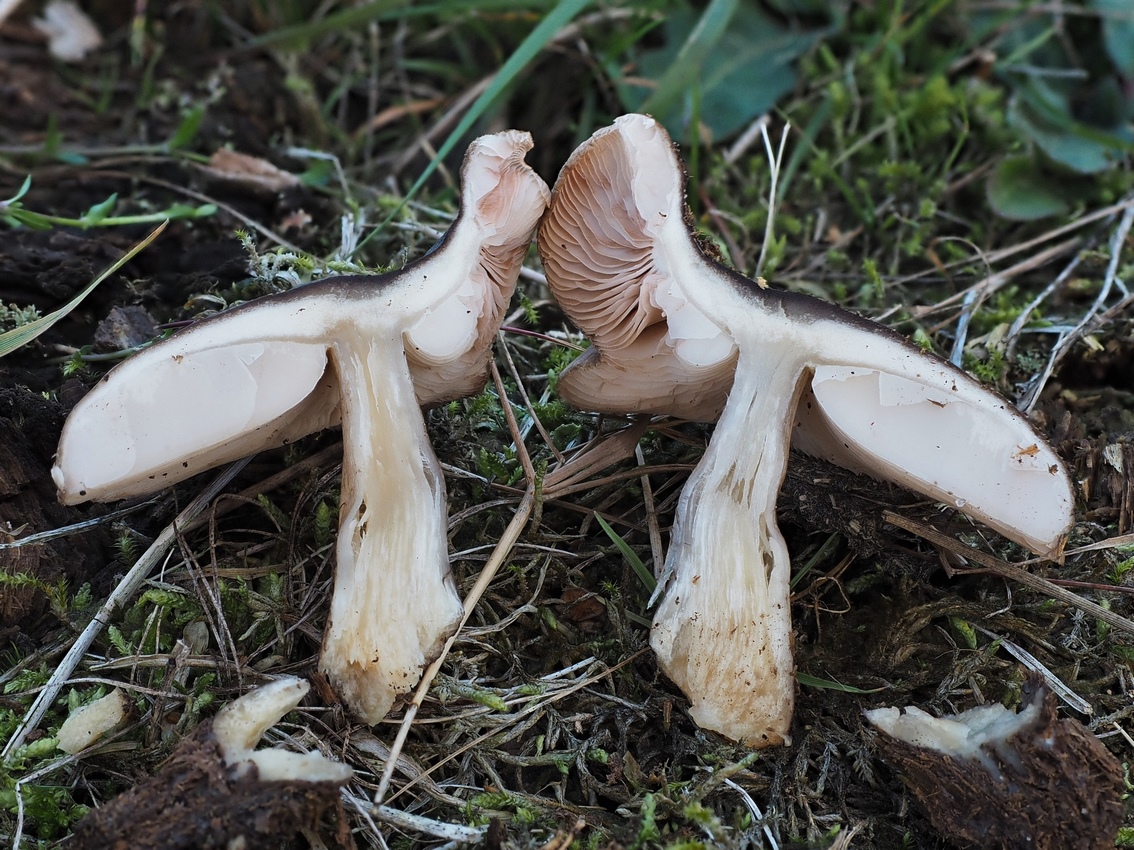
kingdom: Fungi
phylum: Basidiomycota
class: Agaricomycetes
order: Agaricales
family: Pluteaceae
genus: Pluteus
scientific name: Pluteus
